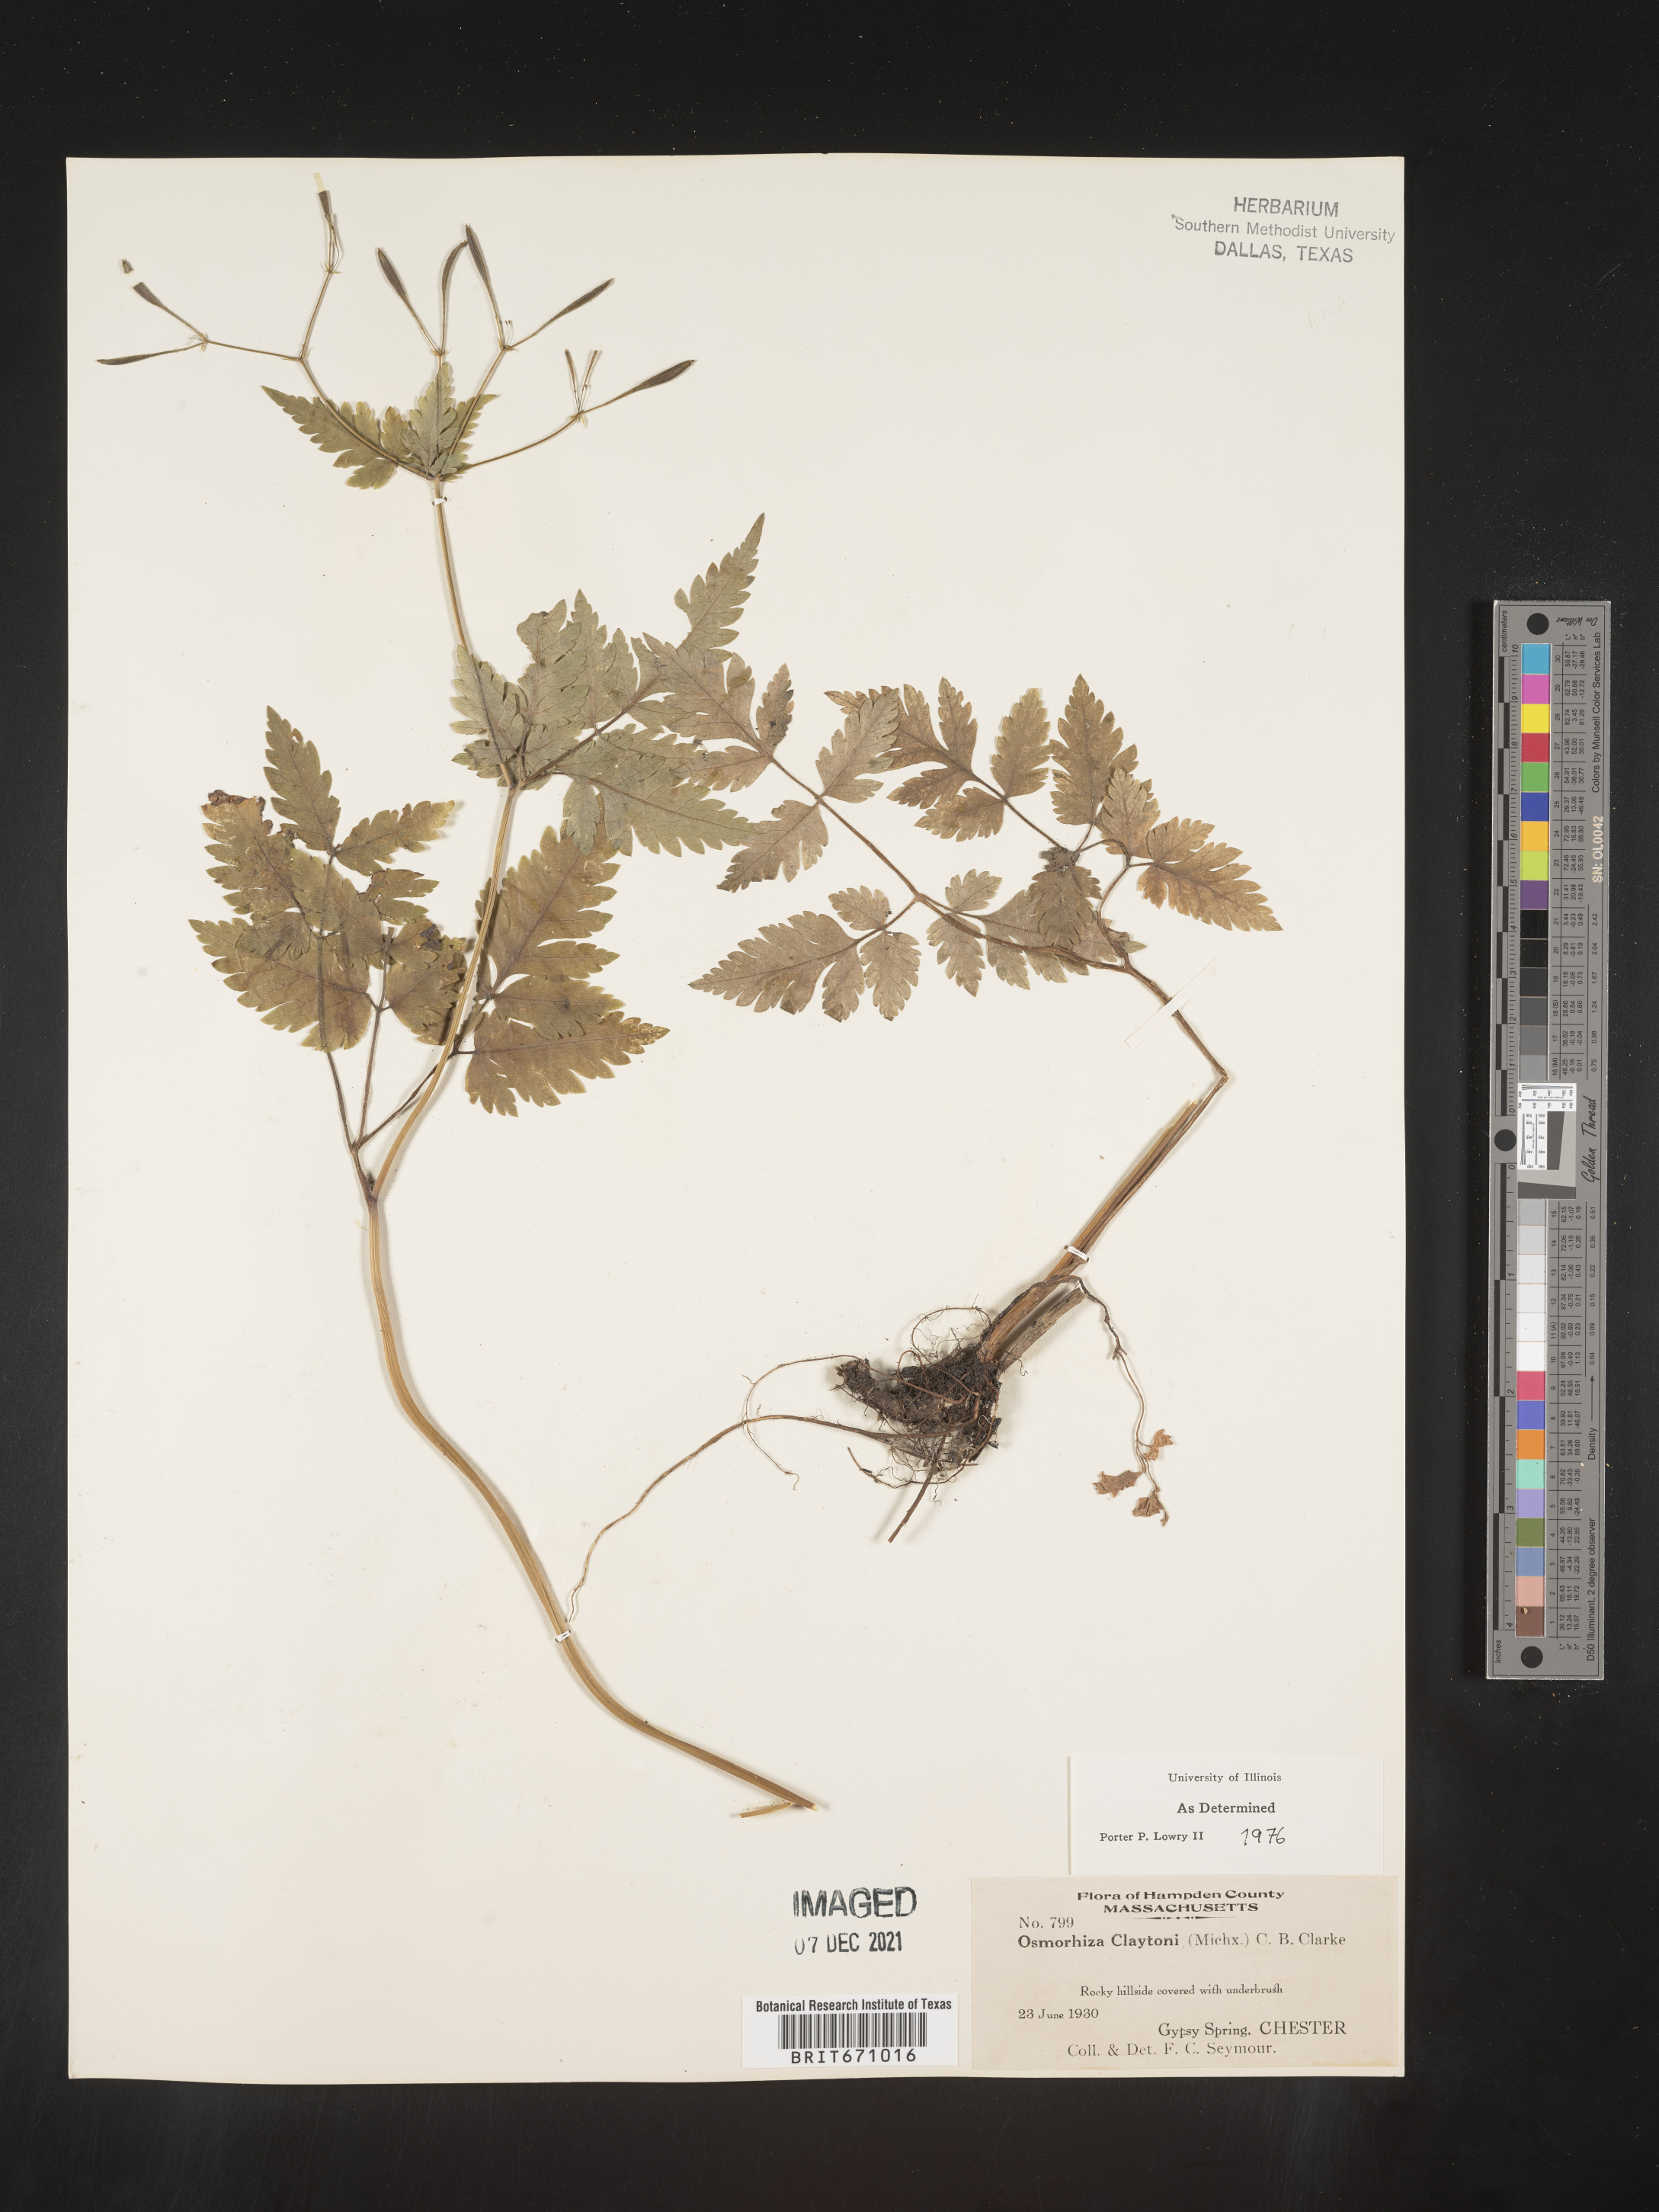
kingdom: Plantae
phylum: Tracheophyta
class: Magnoliopsida
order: Apiales
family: Apiaceae
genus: Osmorhiza
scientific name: Osmorhiza claytonii
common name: Hairy sweet cicely
